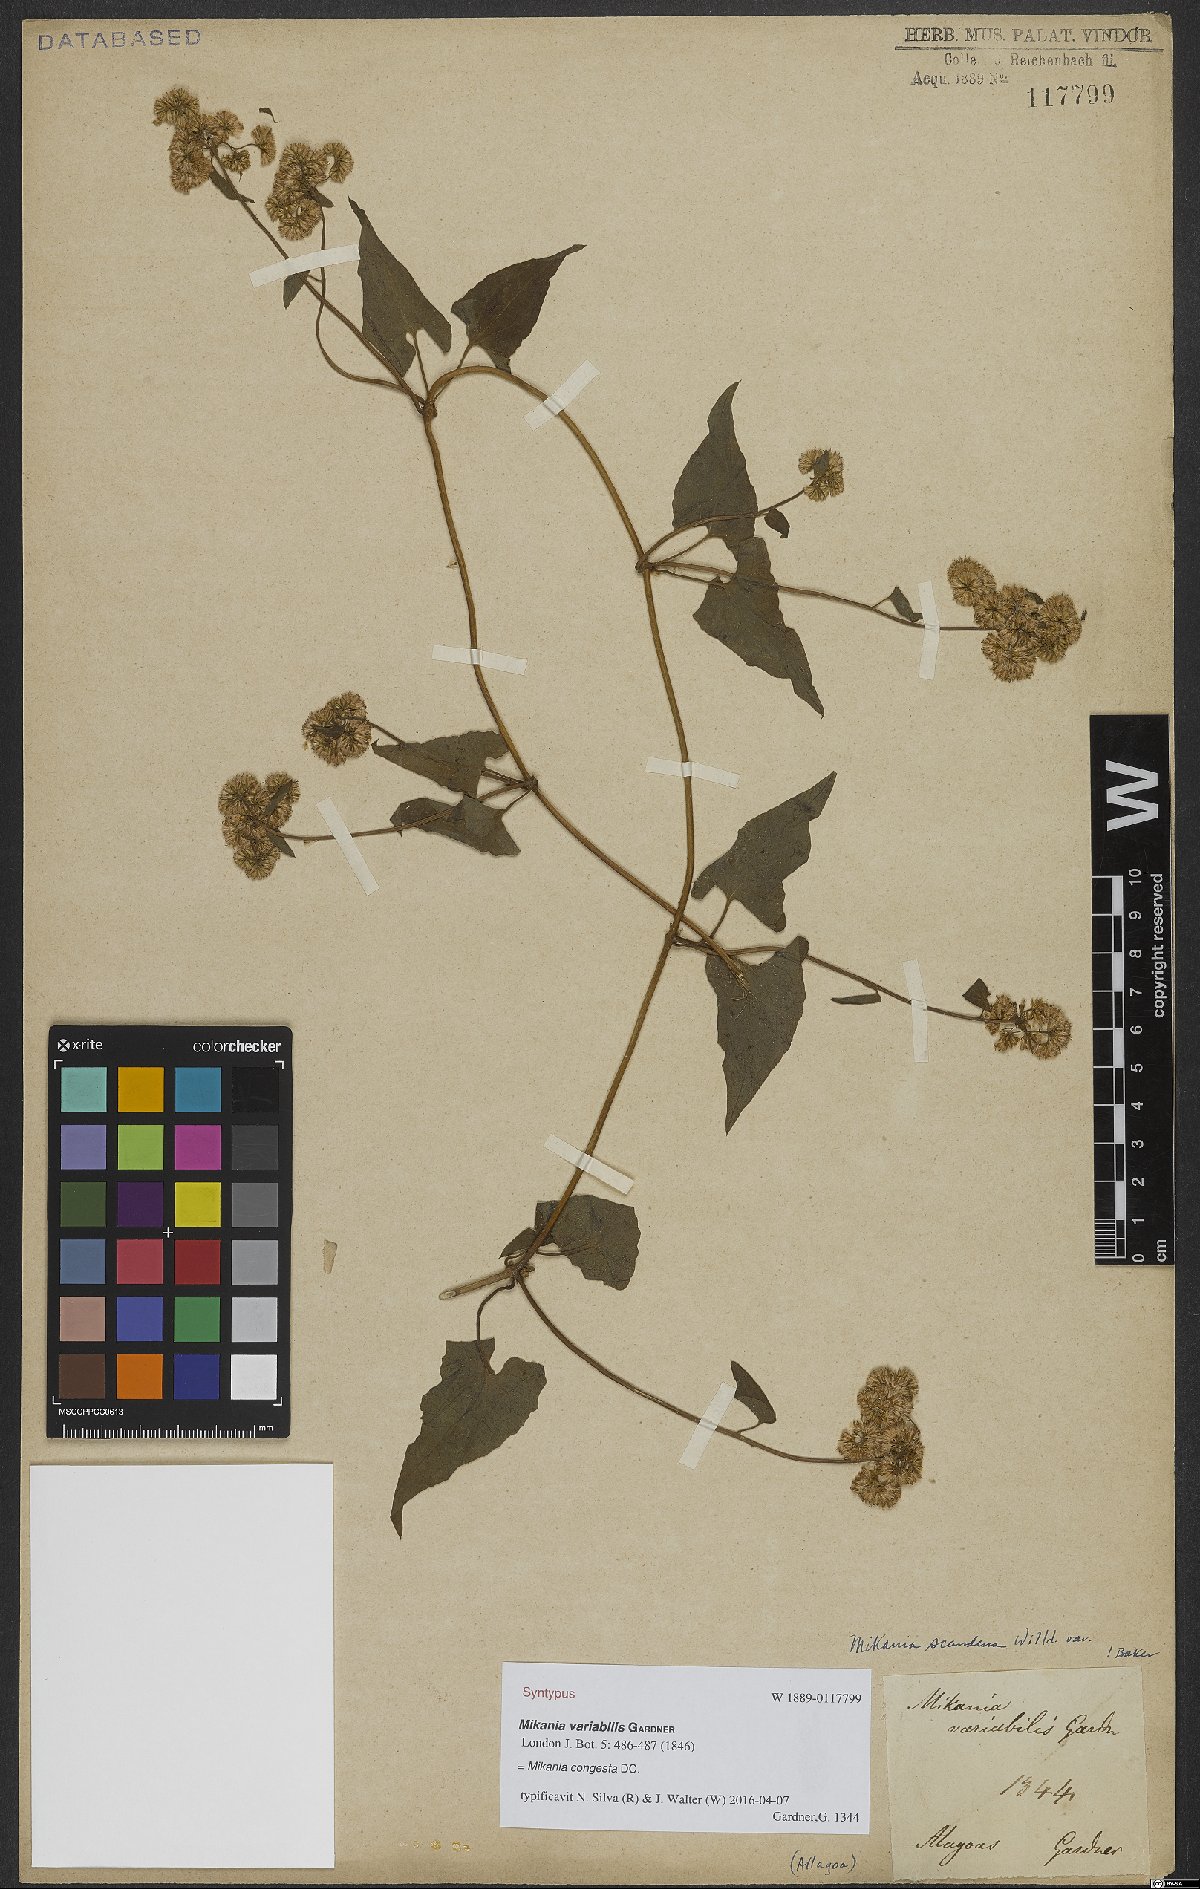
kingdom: Plantae
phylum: Tracheophyta
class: Magnoliopsida
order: Asterales
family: Asteraceae
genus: Mikania
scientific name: Mikania congesta
